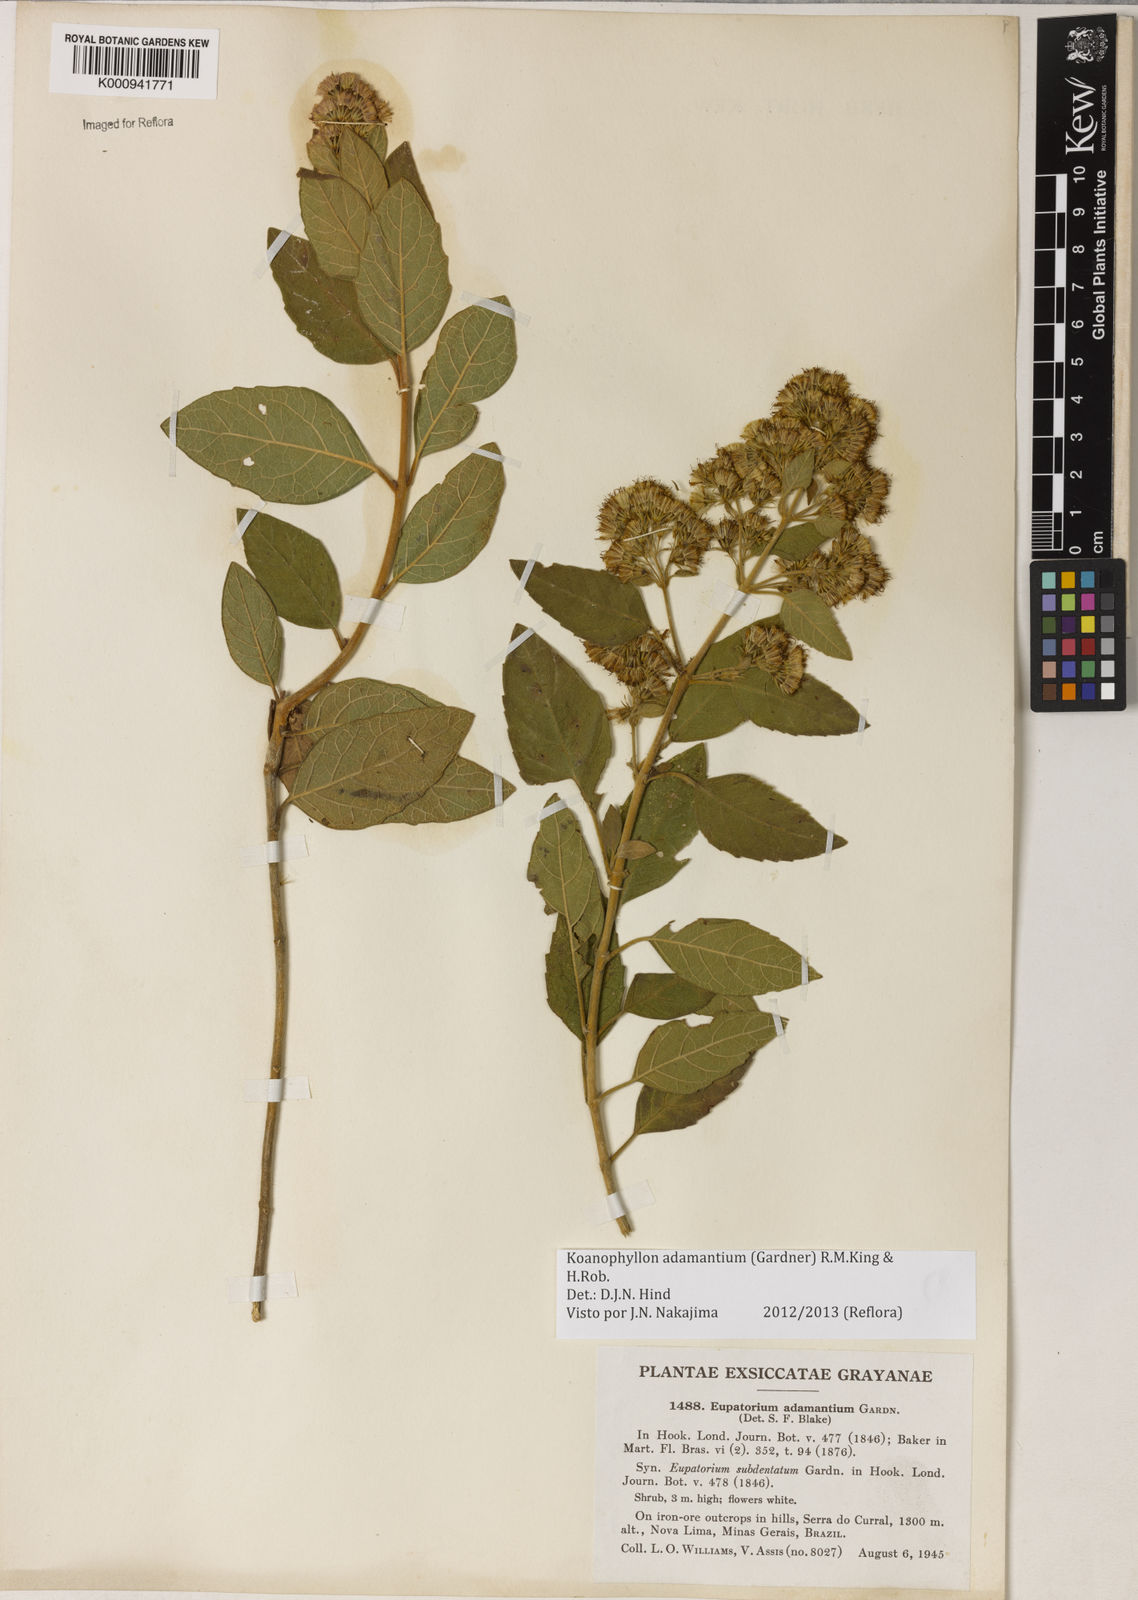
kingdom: Plantae
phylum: Tracheophyta
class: Magnoliopsida
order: Asterales
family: Asteraceae
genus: Koanophyllon
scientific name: Koanophyllon adamantium
